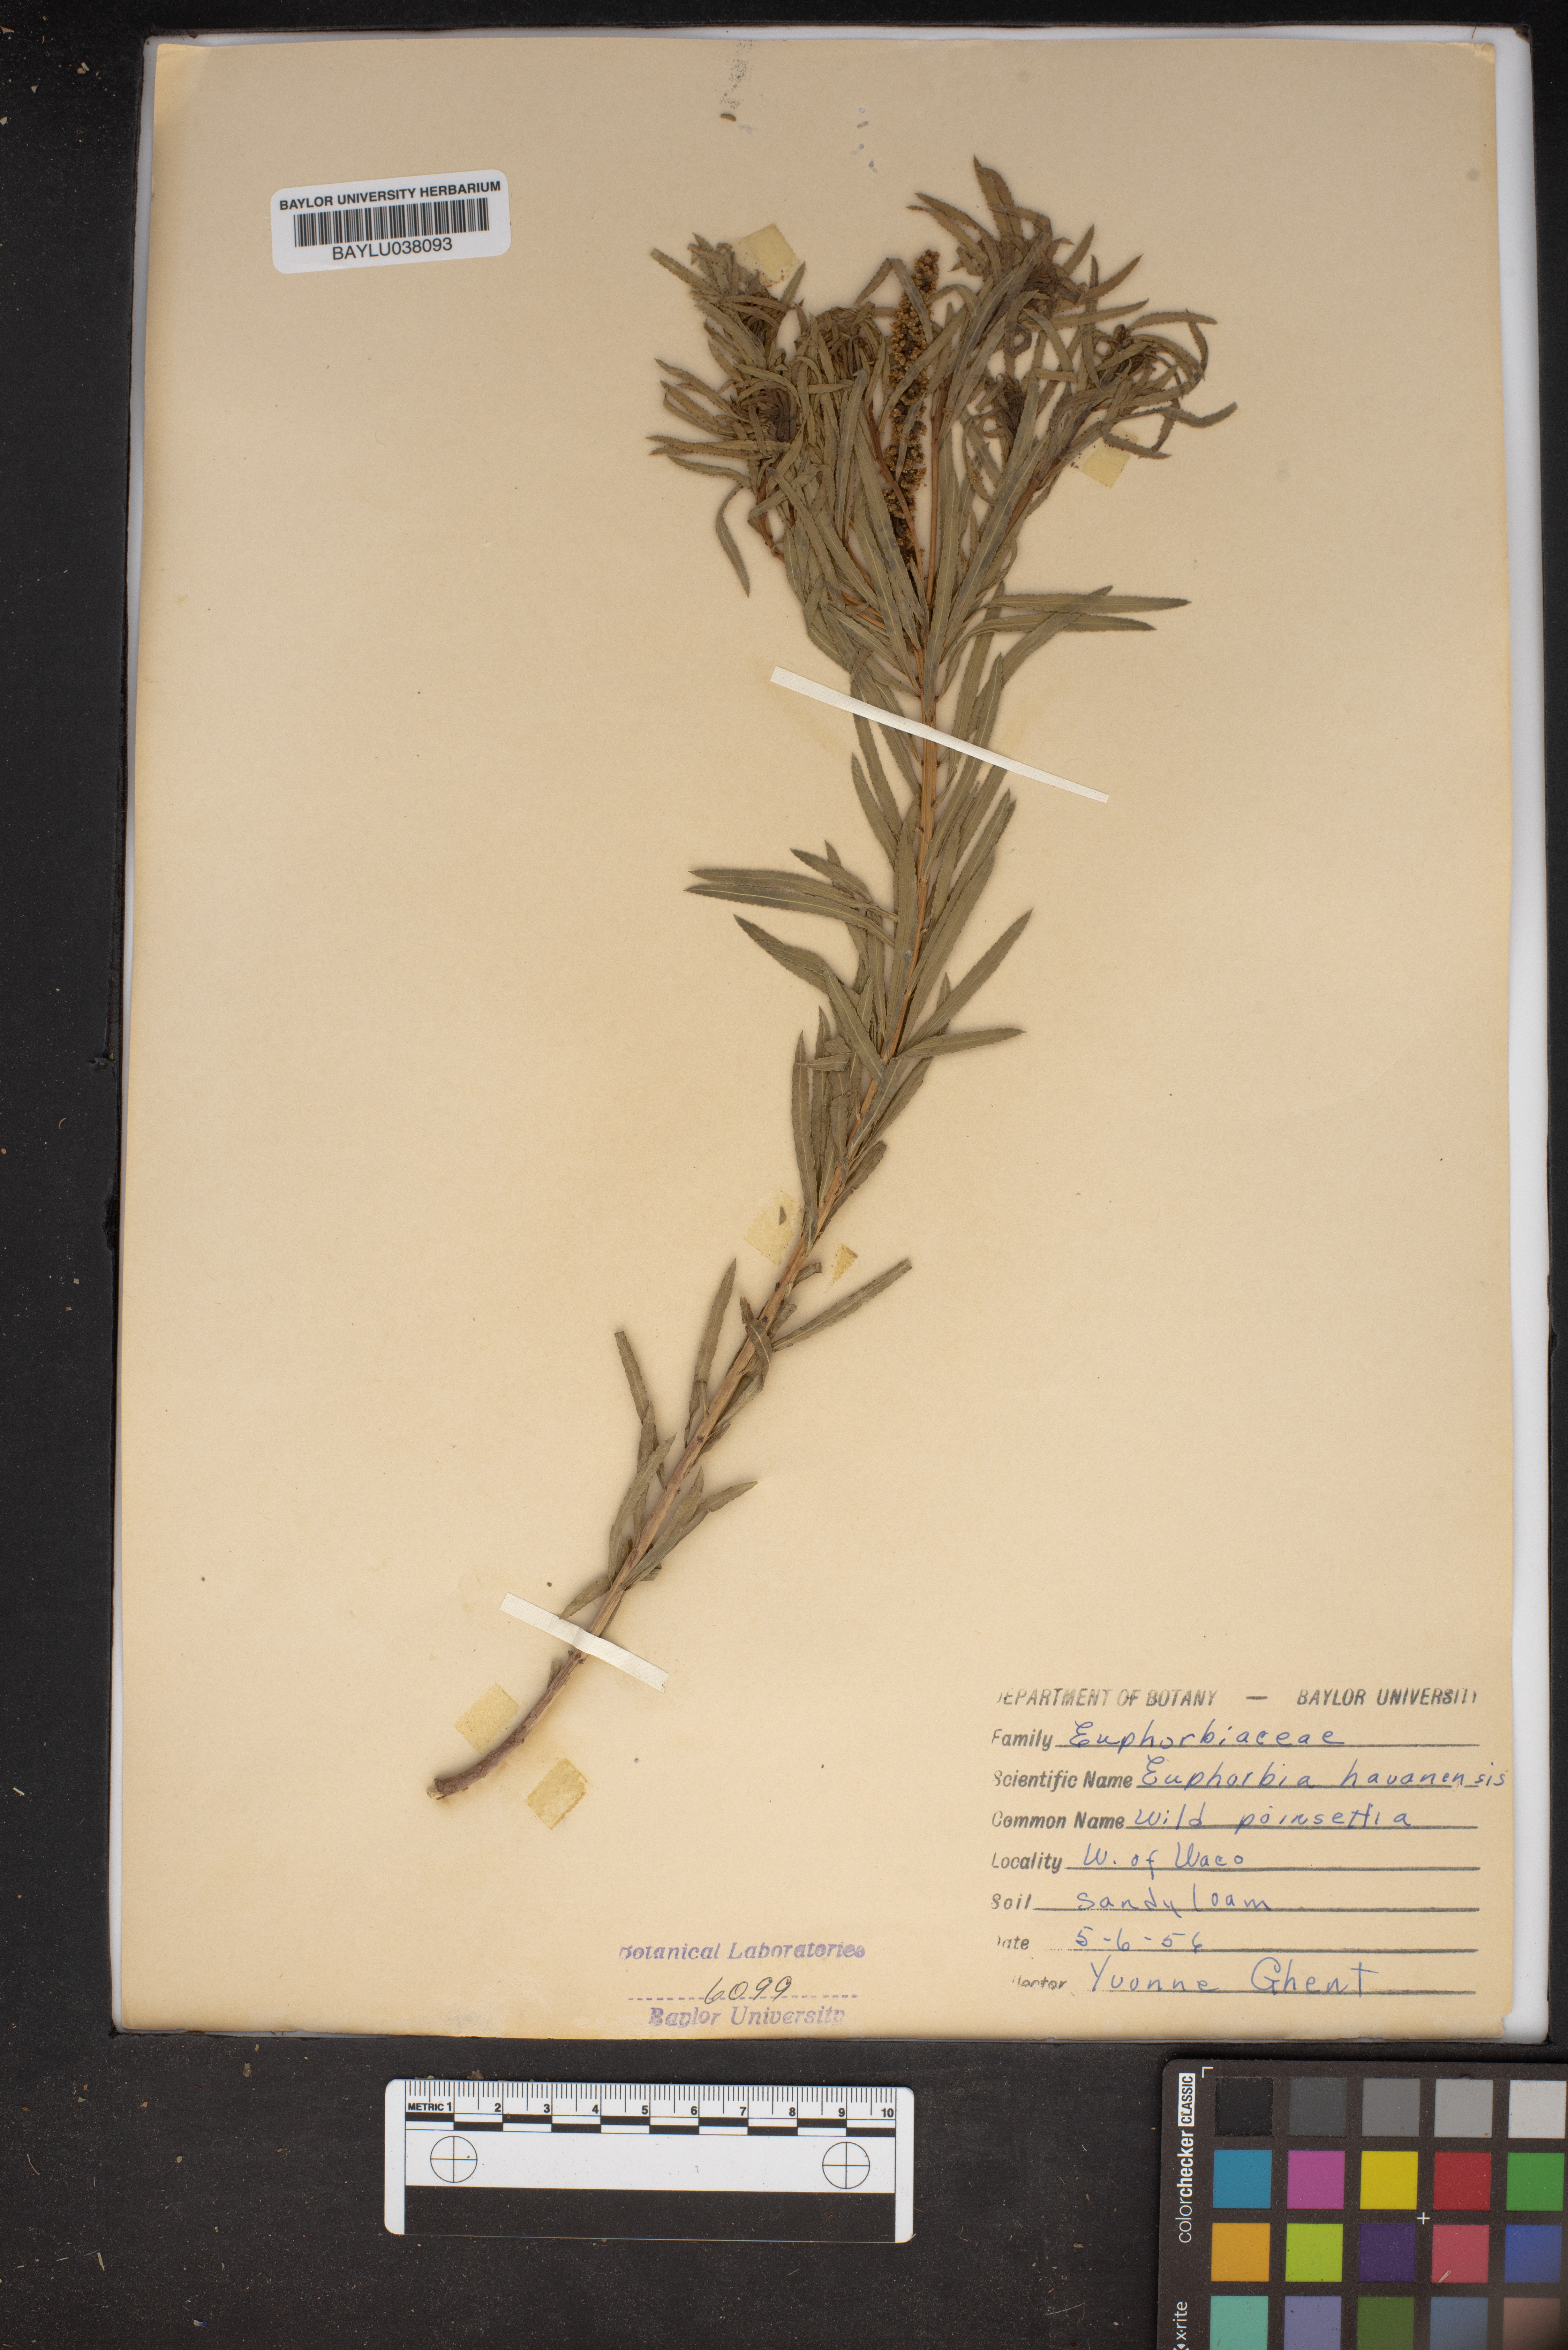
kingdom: Plantae
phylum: Tracheophyta
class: Magnoliopsida
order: Malpighiales
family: Euphorbiaceae
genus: Euphorbia
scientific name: Euphorbia havanensis
